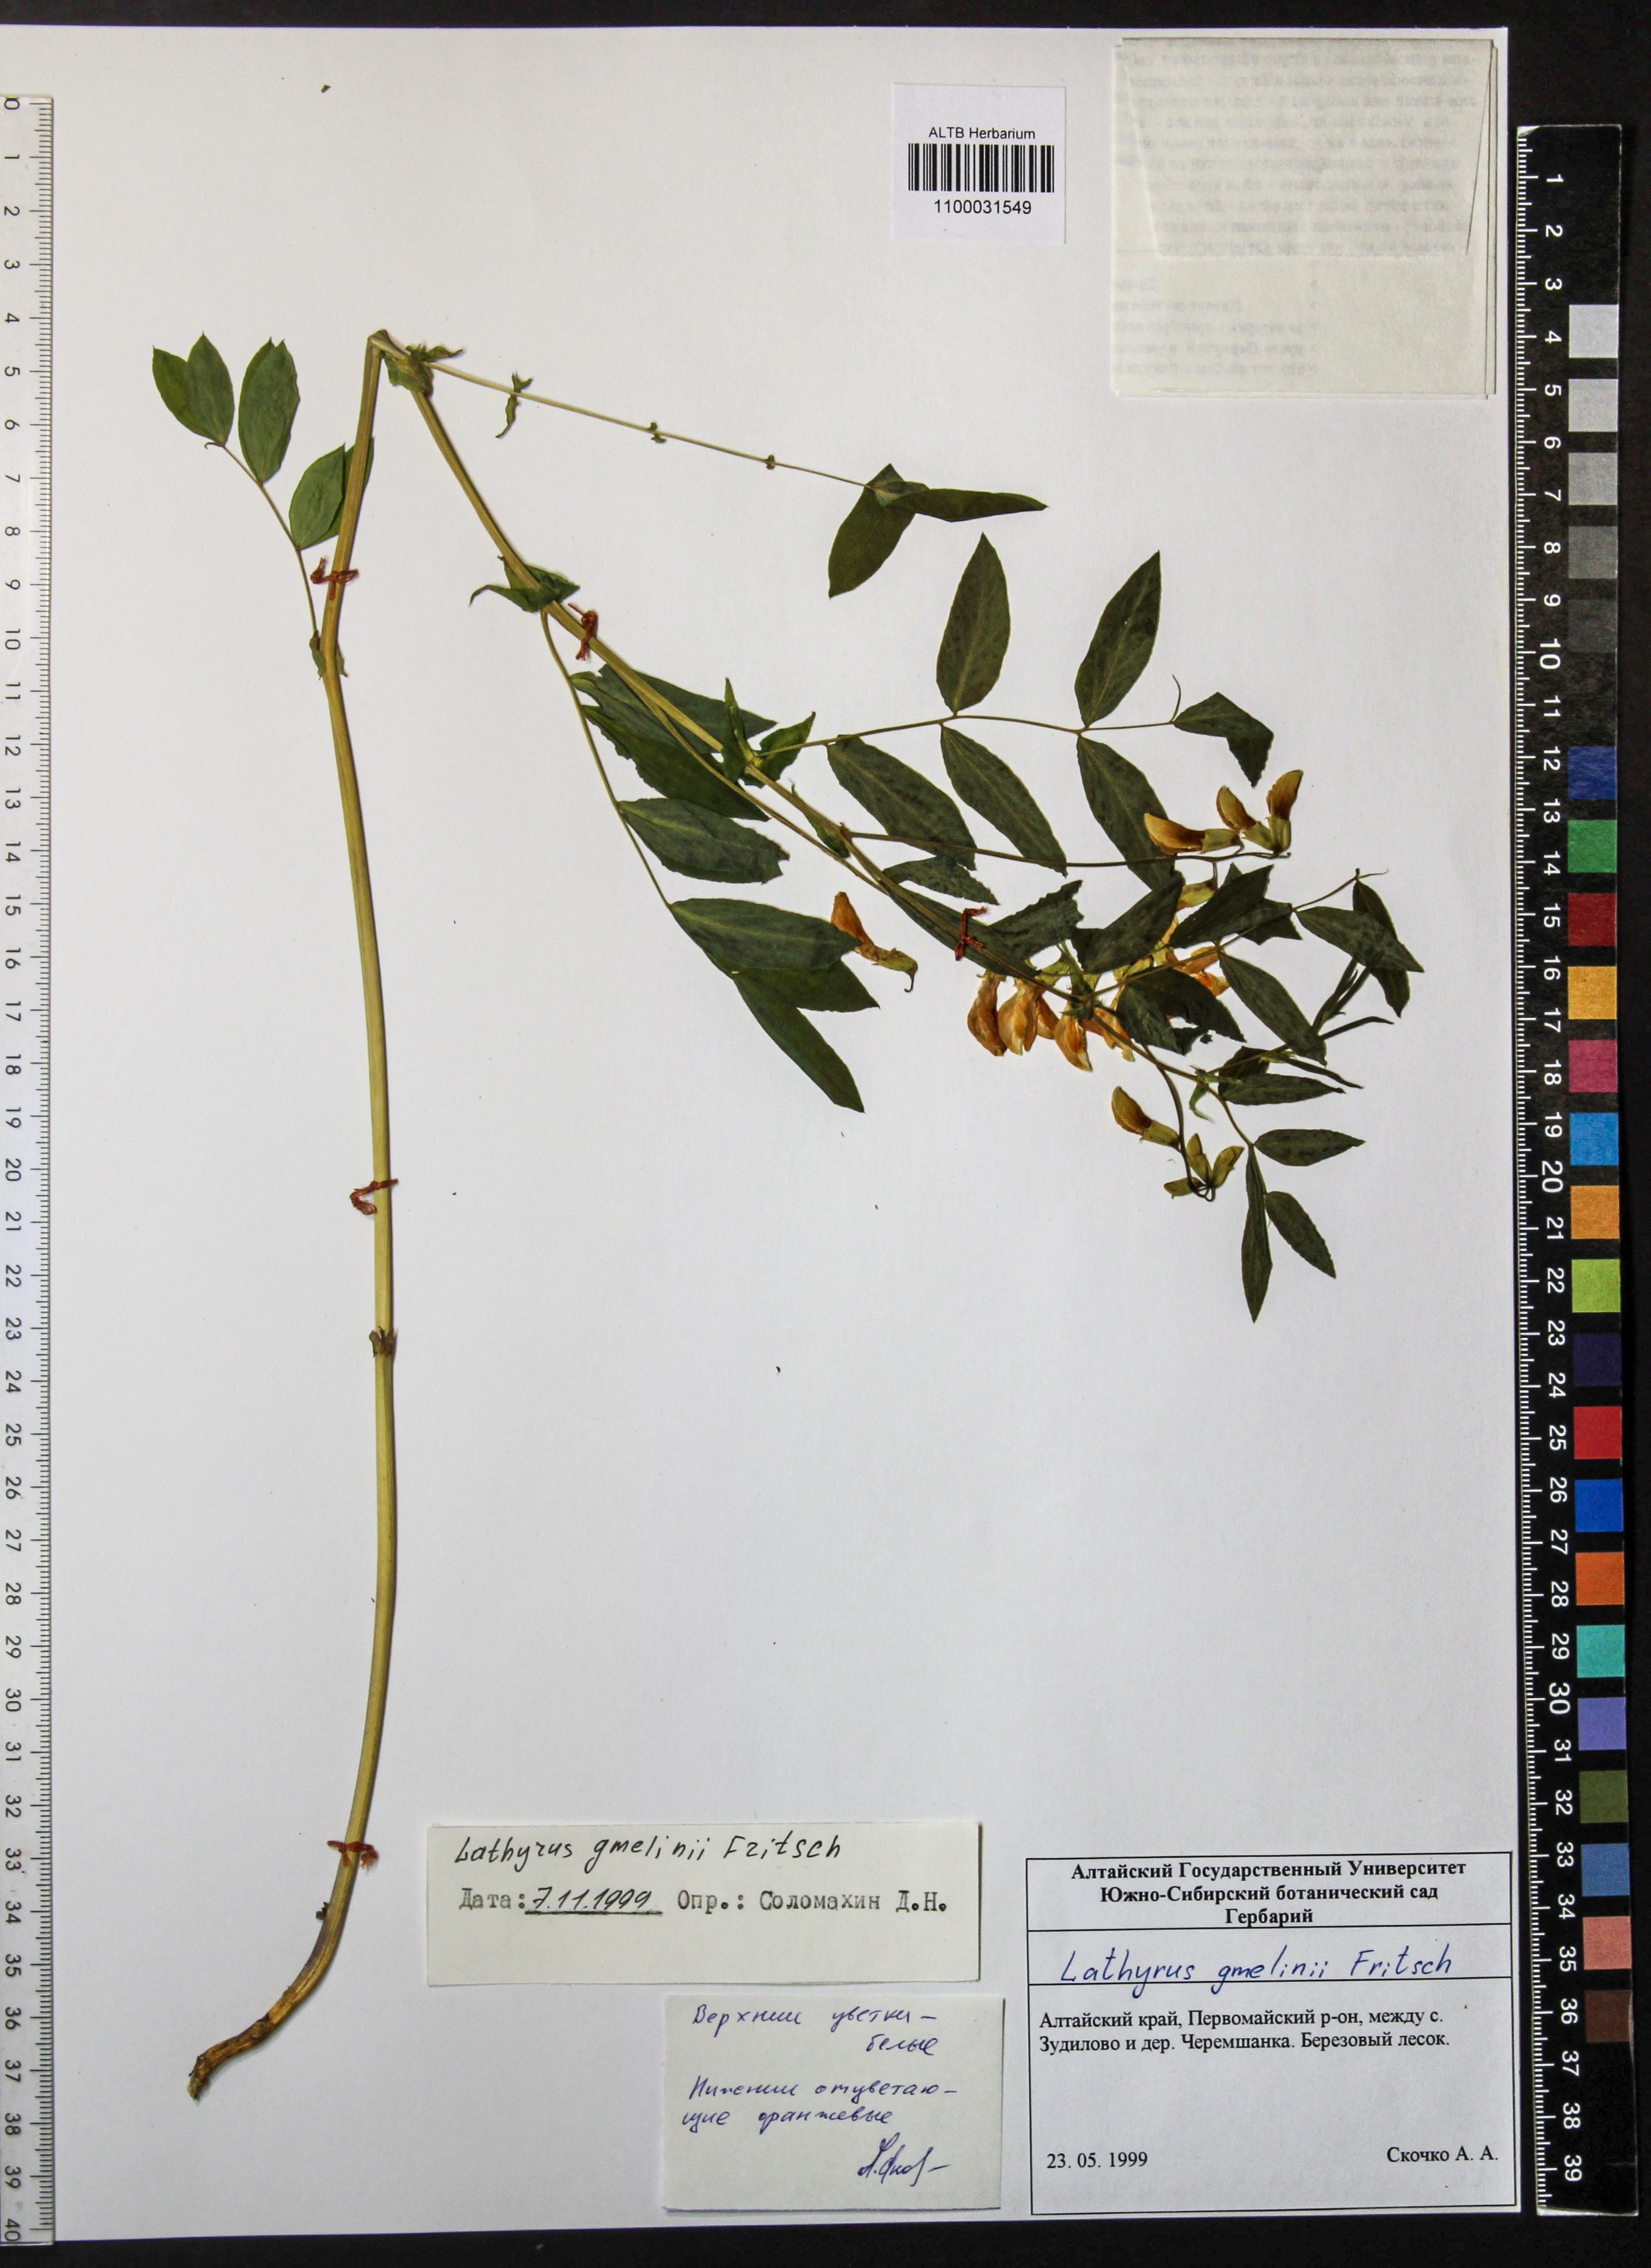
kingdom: Plantae
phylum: Tracheophyta
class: Magnoliopsida
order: Fabales
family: Fabaceae
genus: Lathyrus
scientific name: Lathyrus gmelinii
